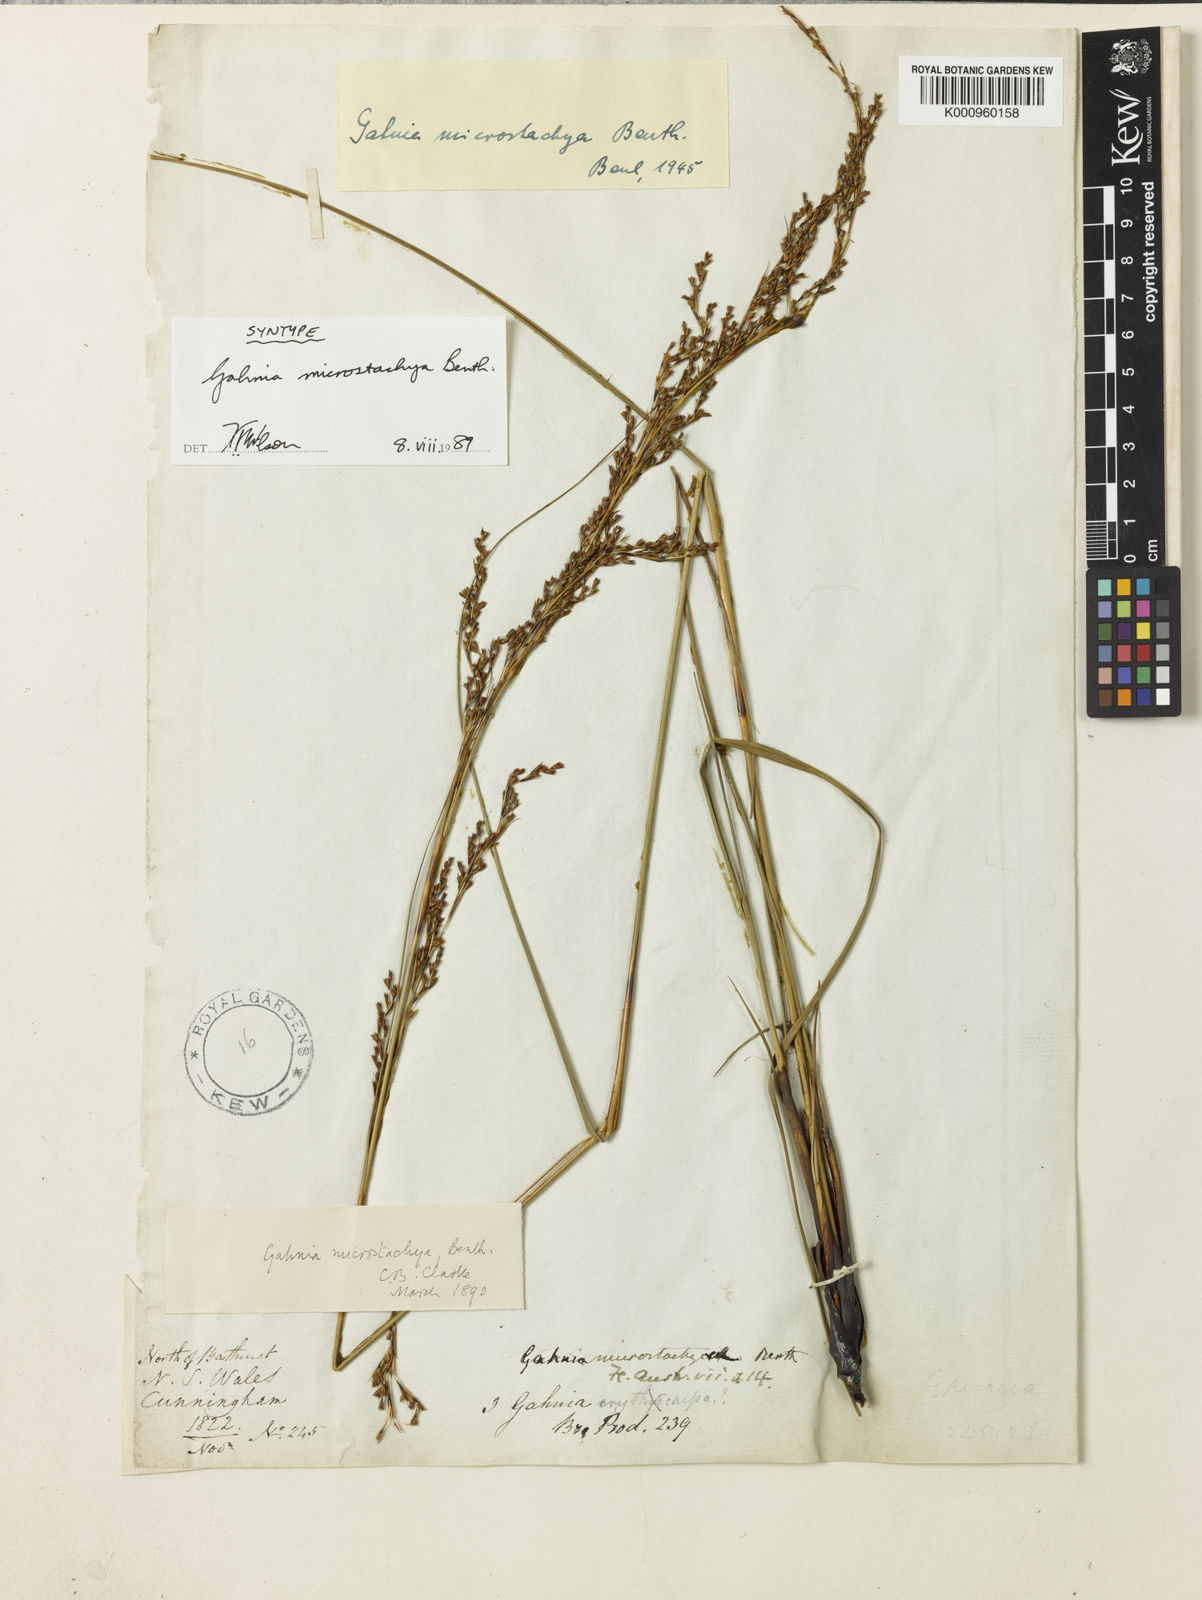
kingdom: Plantae
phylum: Tracheophyta
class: Liliopsida
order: Poales
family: Cyperaceae
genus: Gahnia
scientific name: Gahnia microstachya
